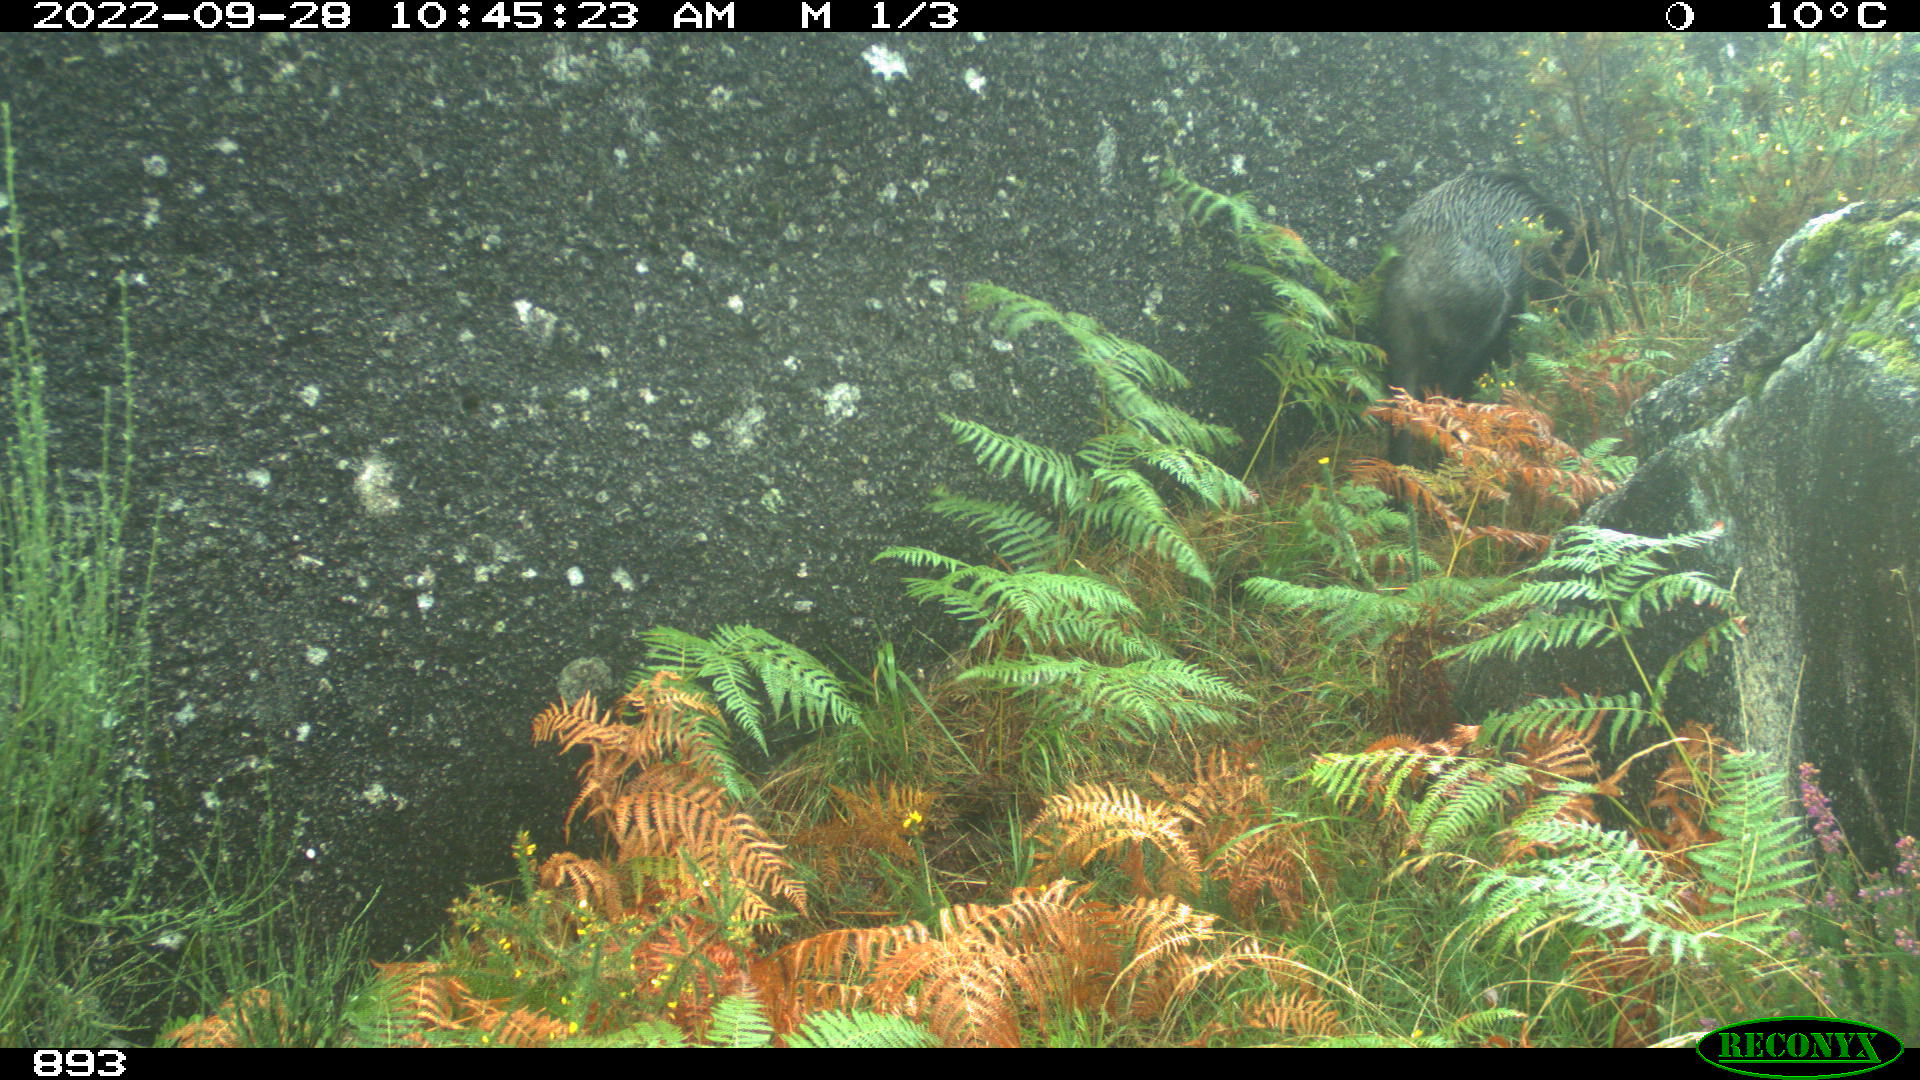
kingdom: Animalia
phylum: Chordata
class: Mammalia
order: Artiodactyla
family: Suidae
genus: Sus
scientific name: Sus scrofa
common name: Wild boar
